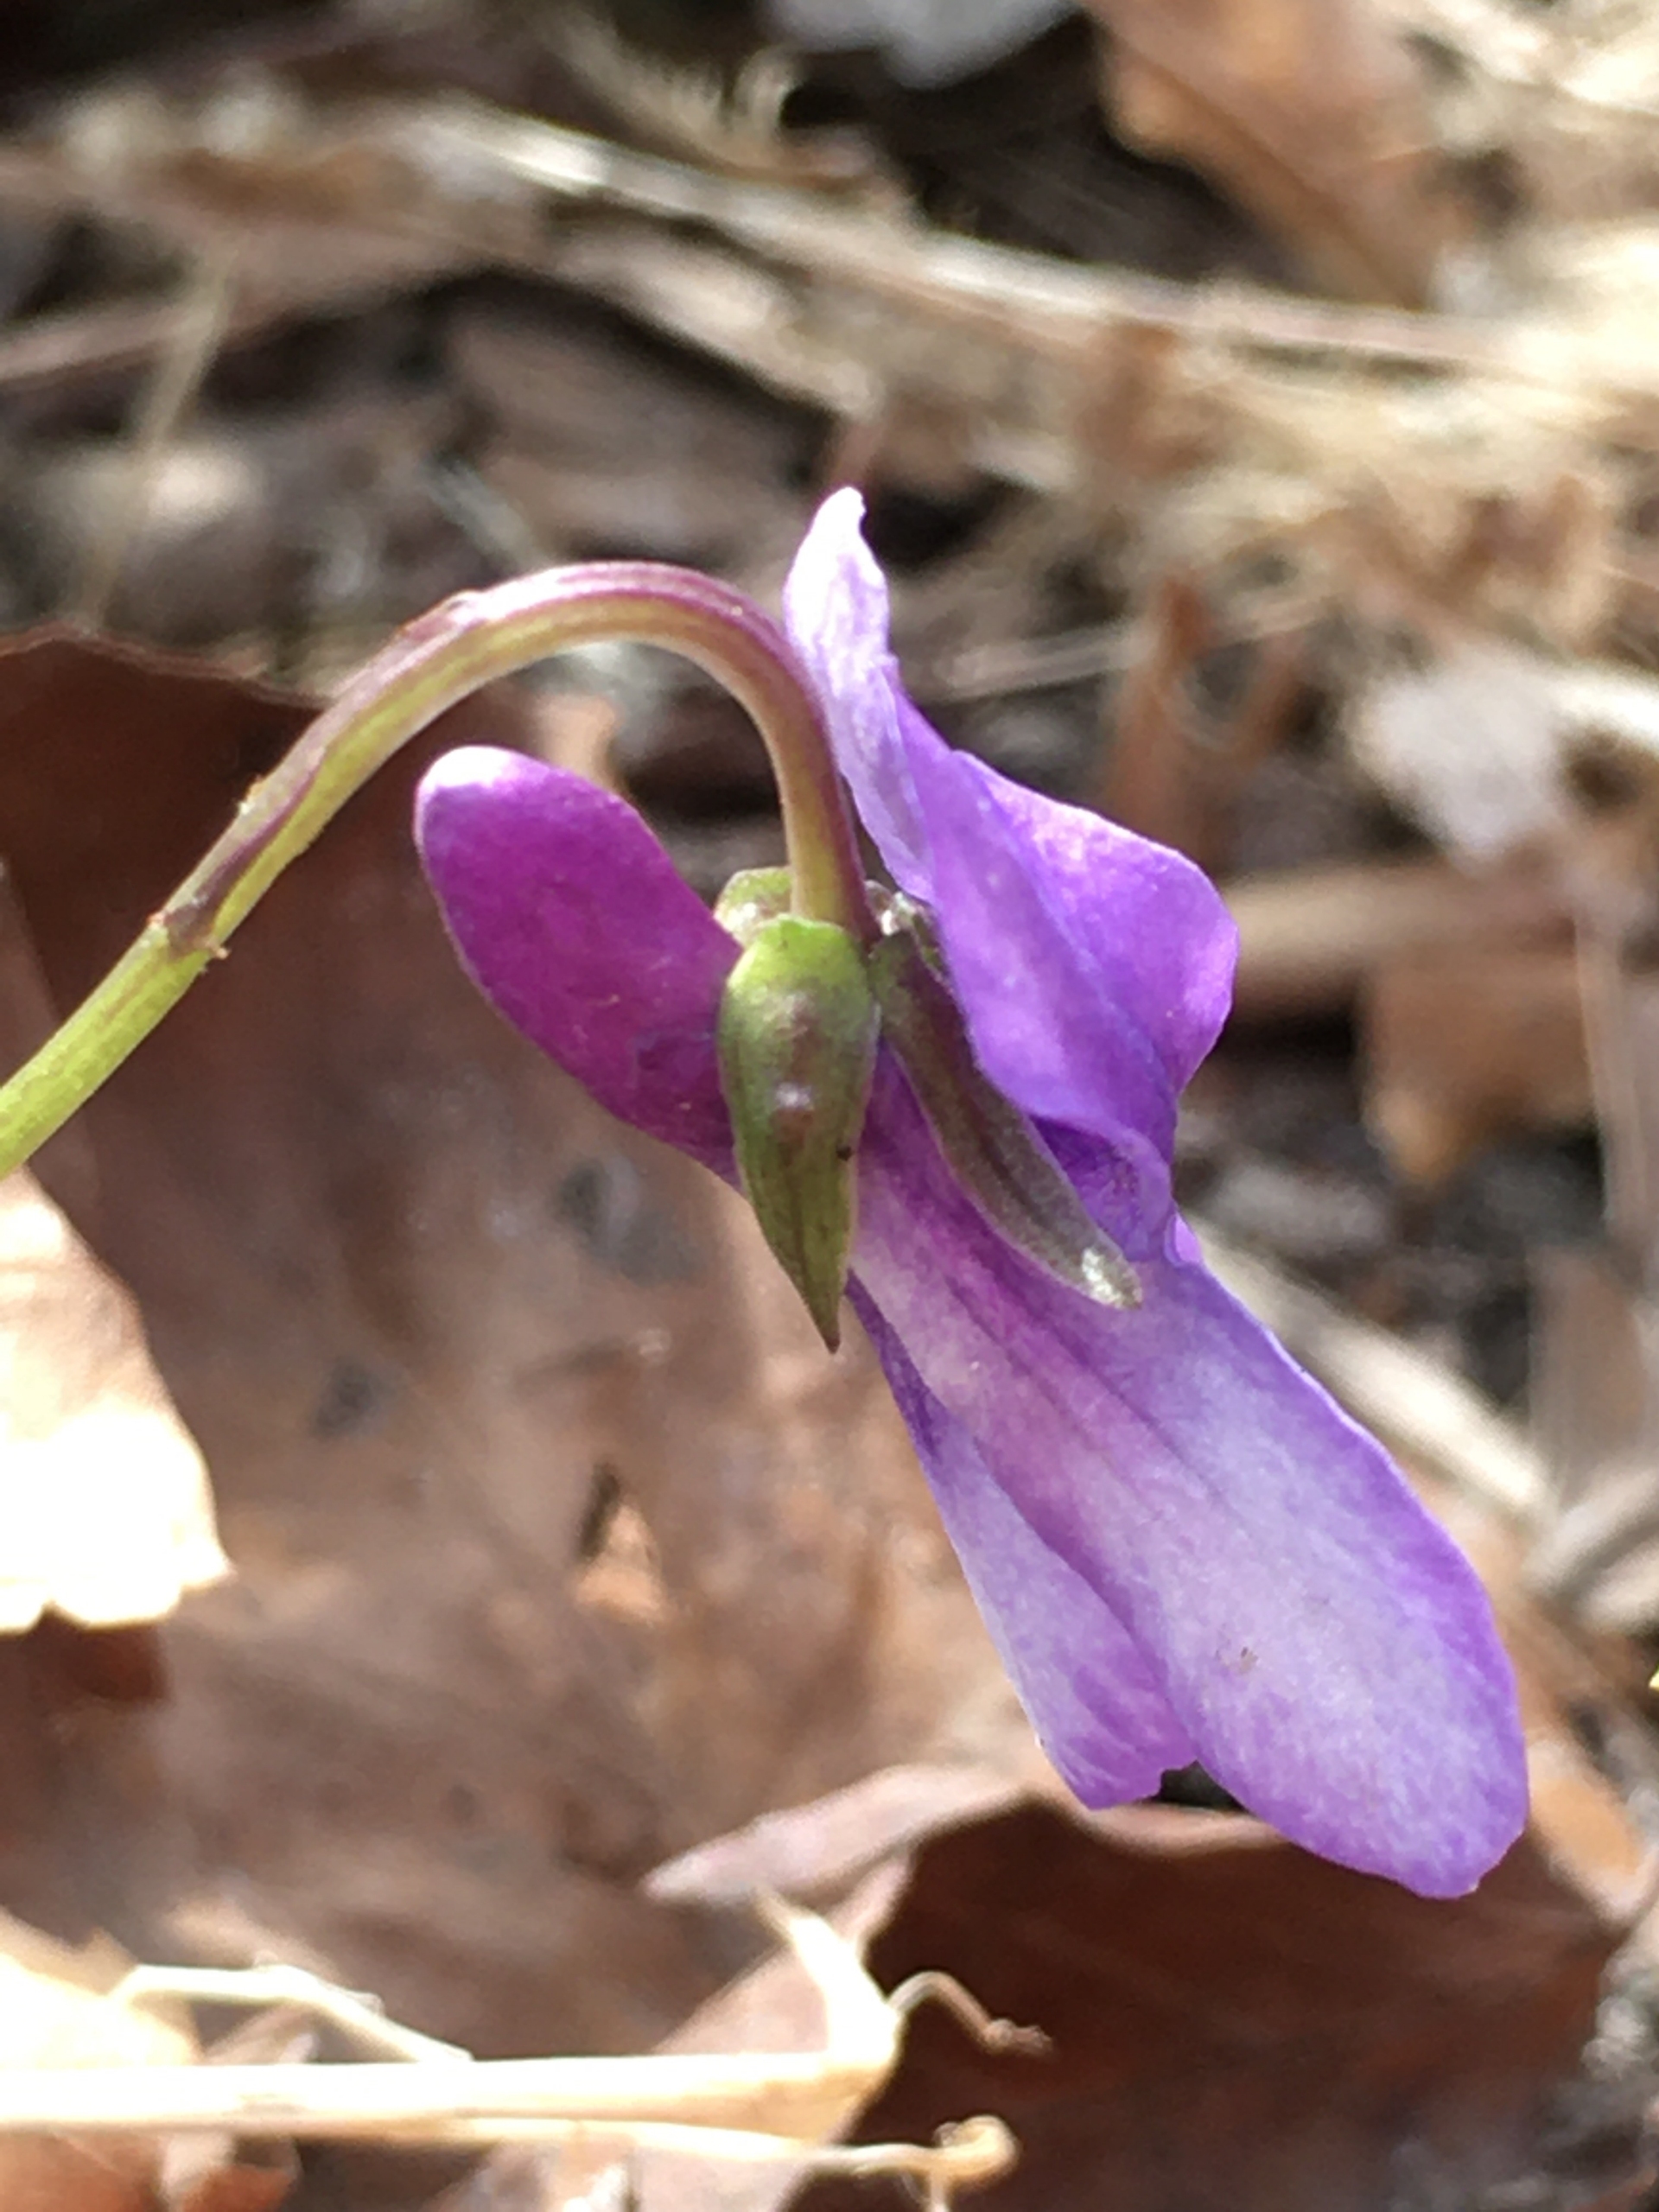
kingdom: Plantae
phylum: Tracheophyta
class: Magnoliopsida
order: Malpighiales
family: Violaceae
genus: Viola
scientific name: Viola reichenbachiana
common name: Skov-viol
